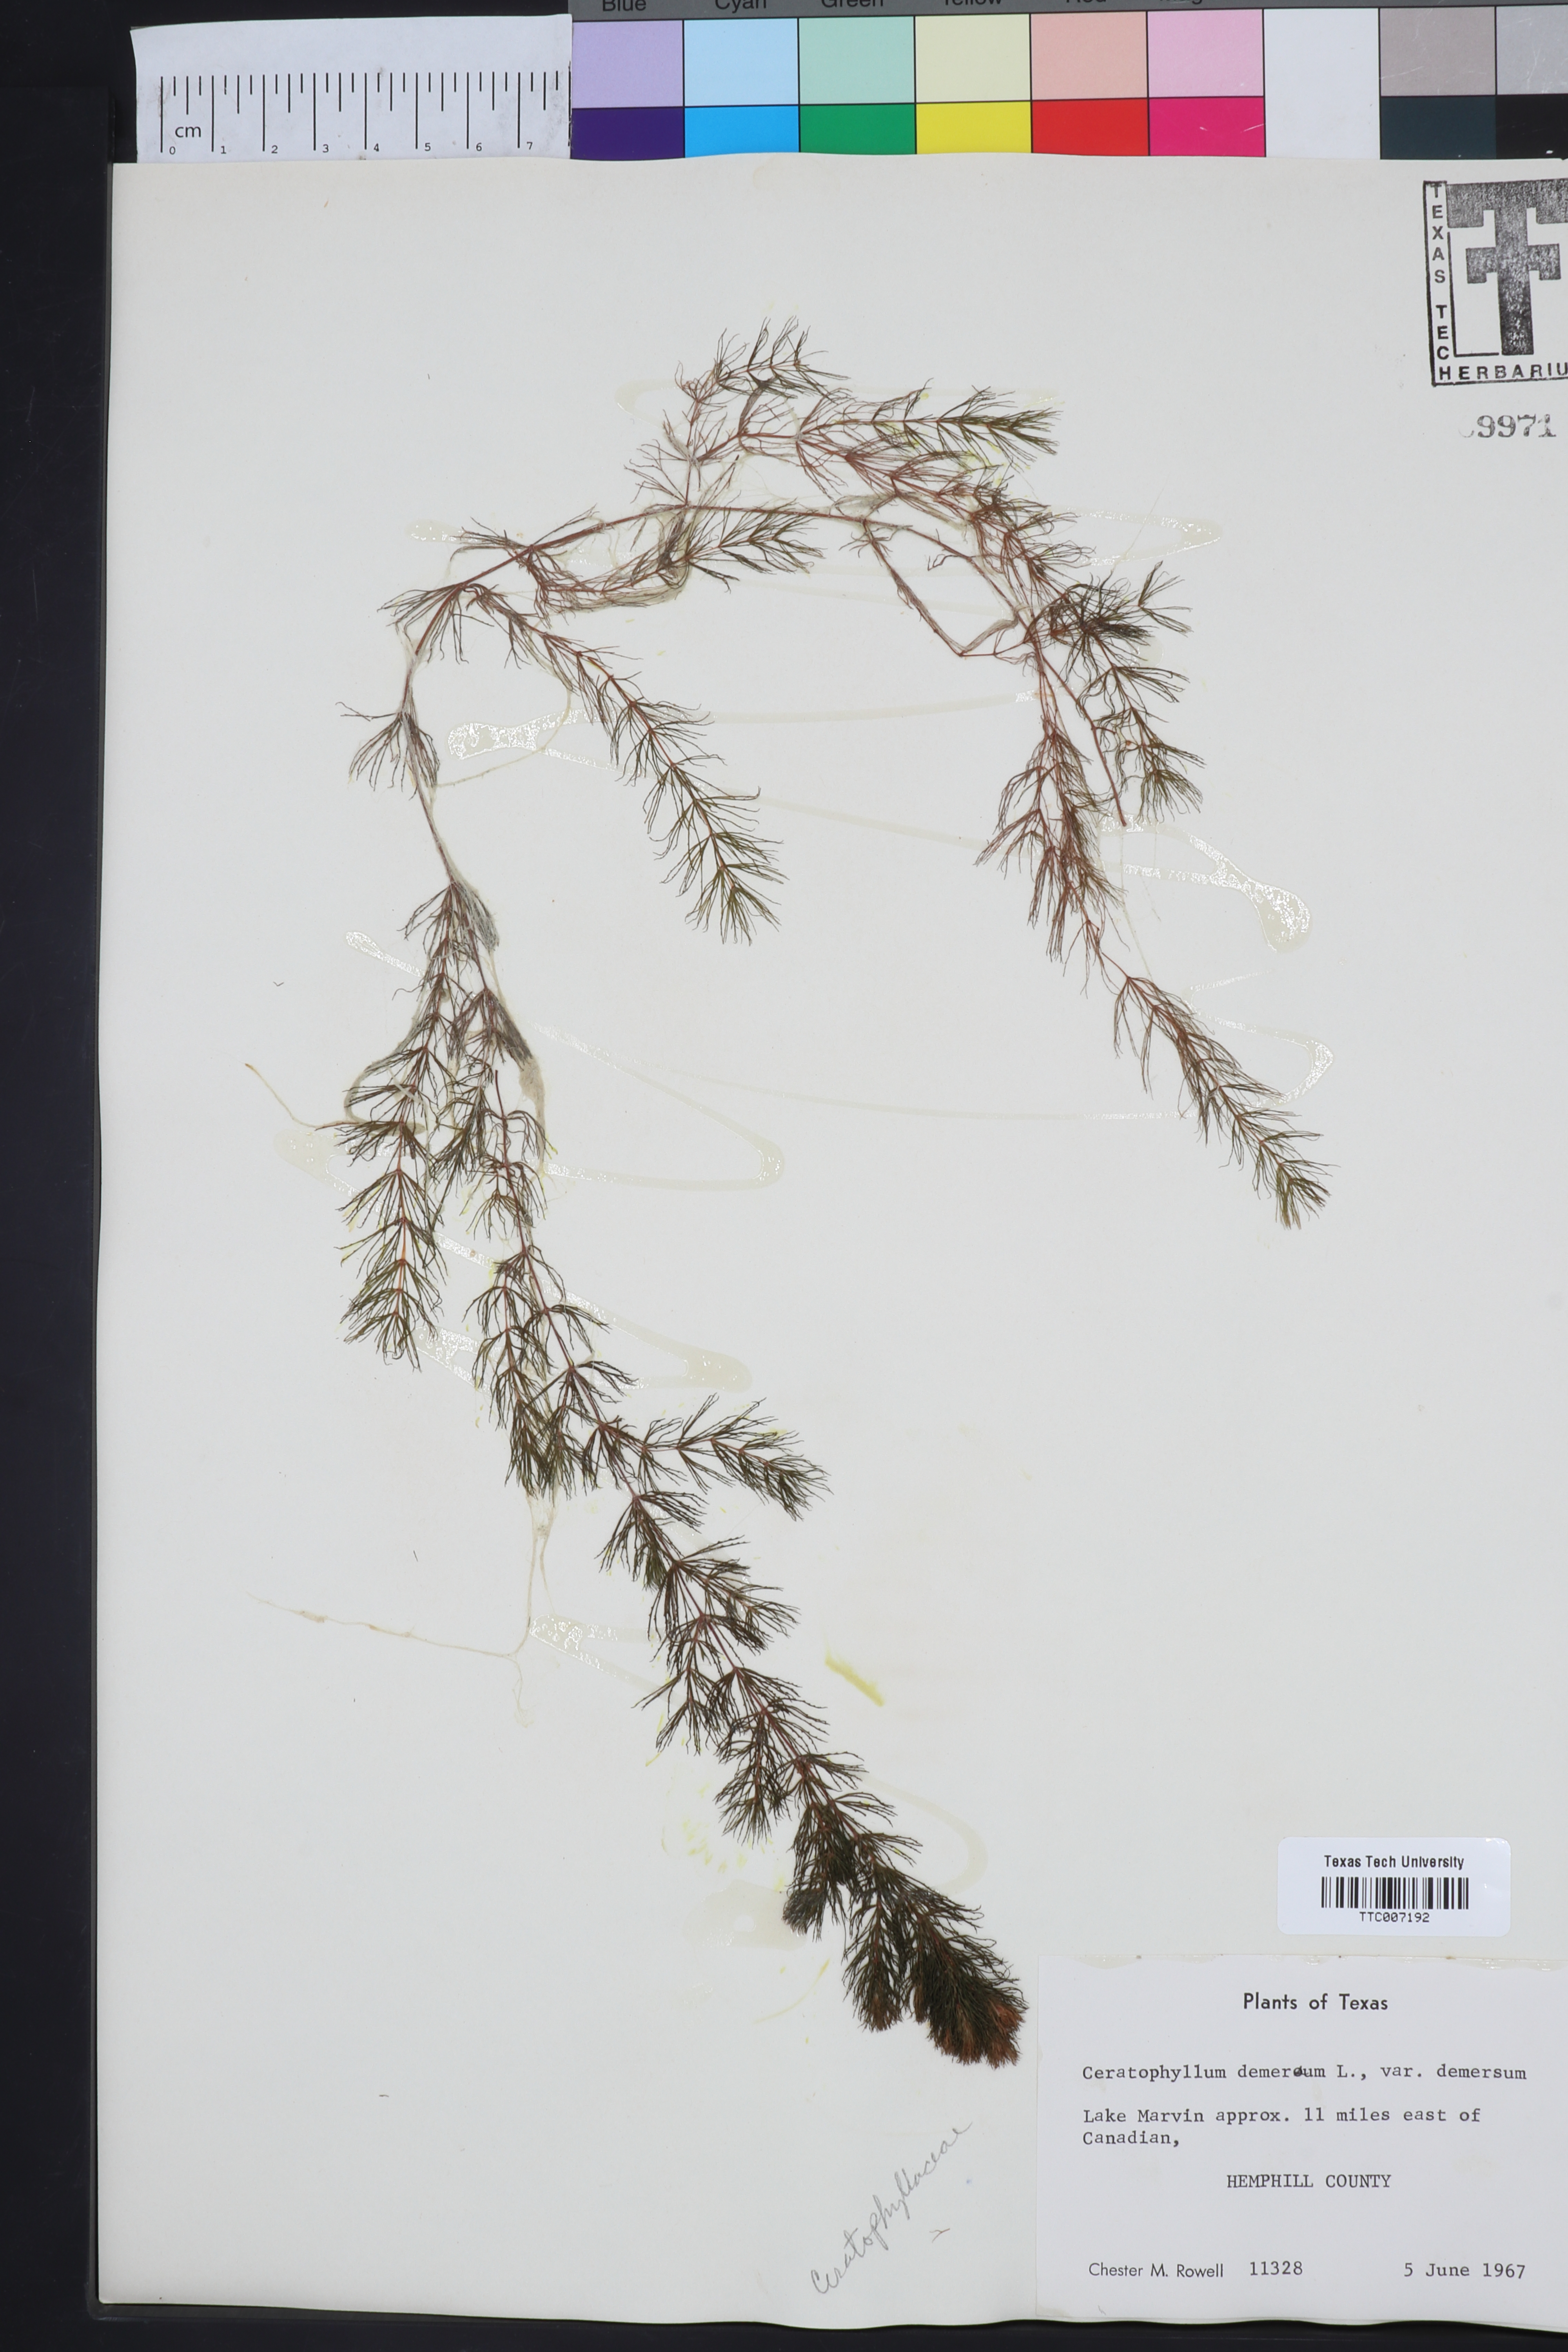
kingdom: Plantae
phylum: Tracheophyta
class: Magnoliopsida
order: Ceratophyllales
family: Ceratophyllaceae
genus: Ceratophyllum
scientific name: Ceratophyllum demersum
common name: Rigid hornwort
